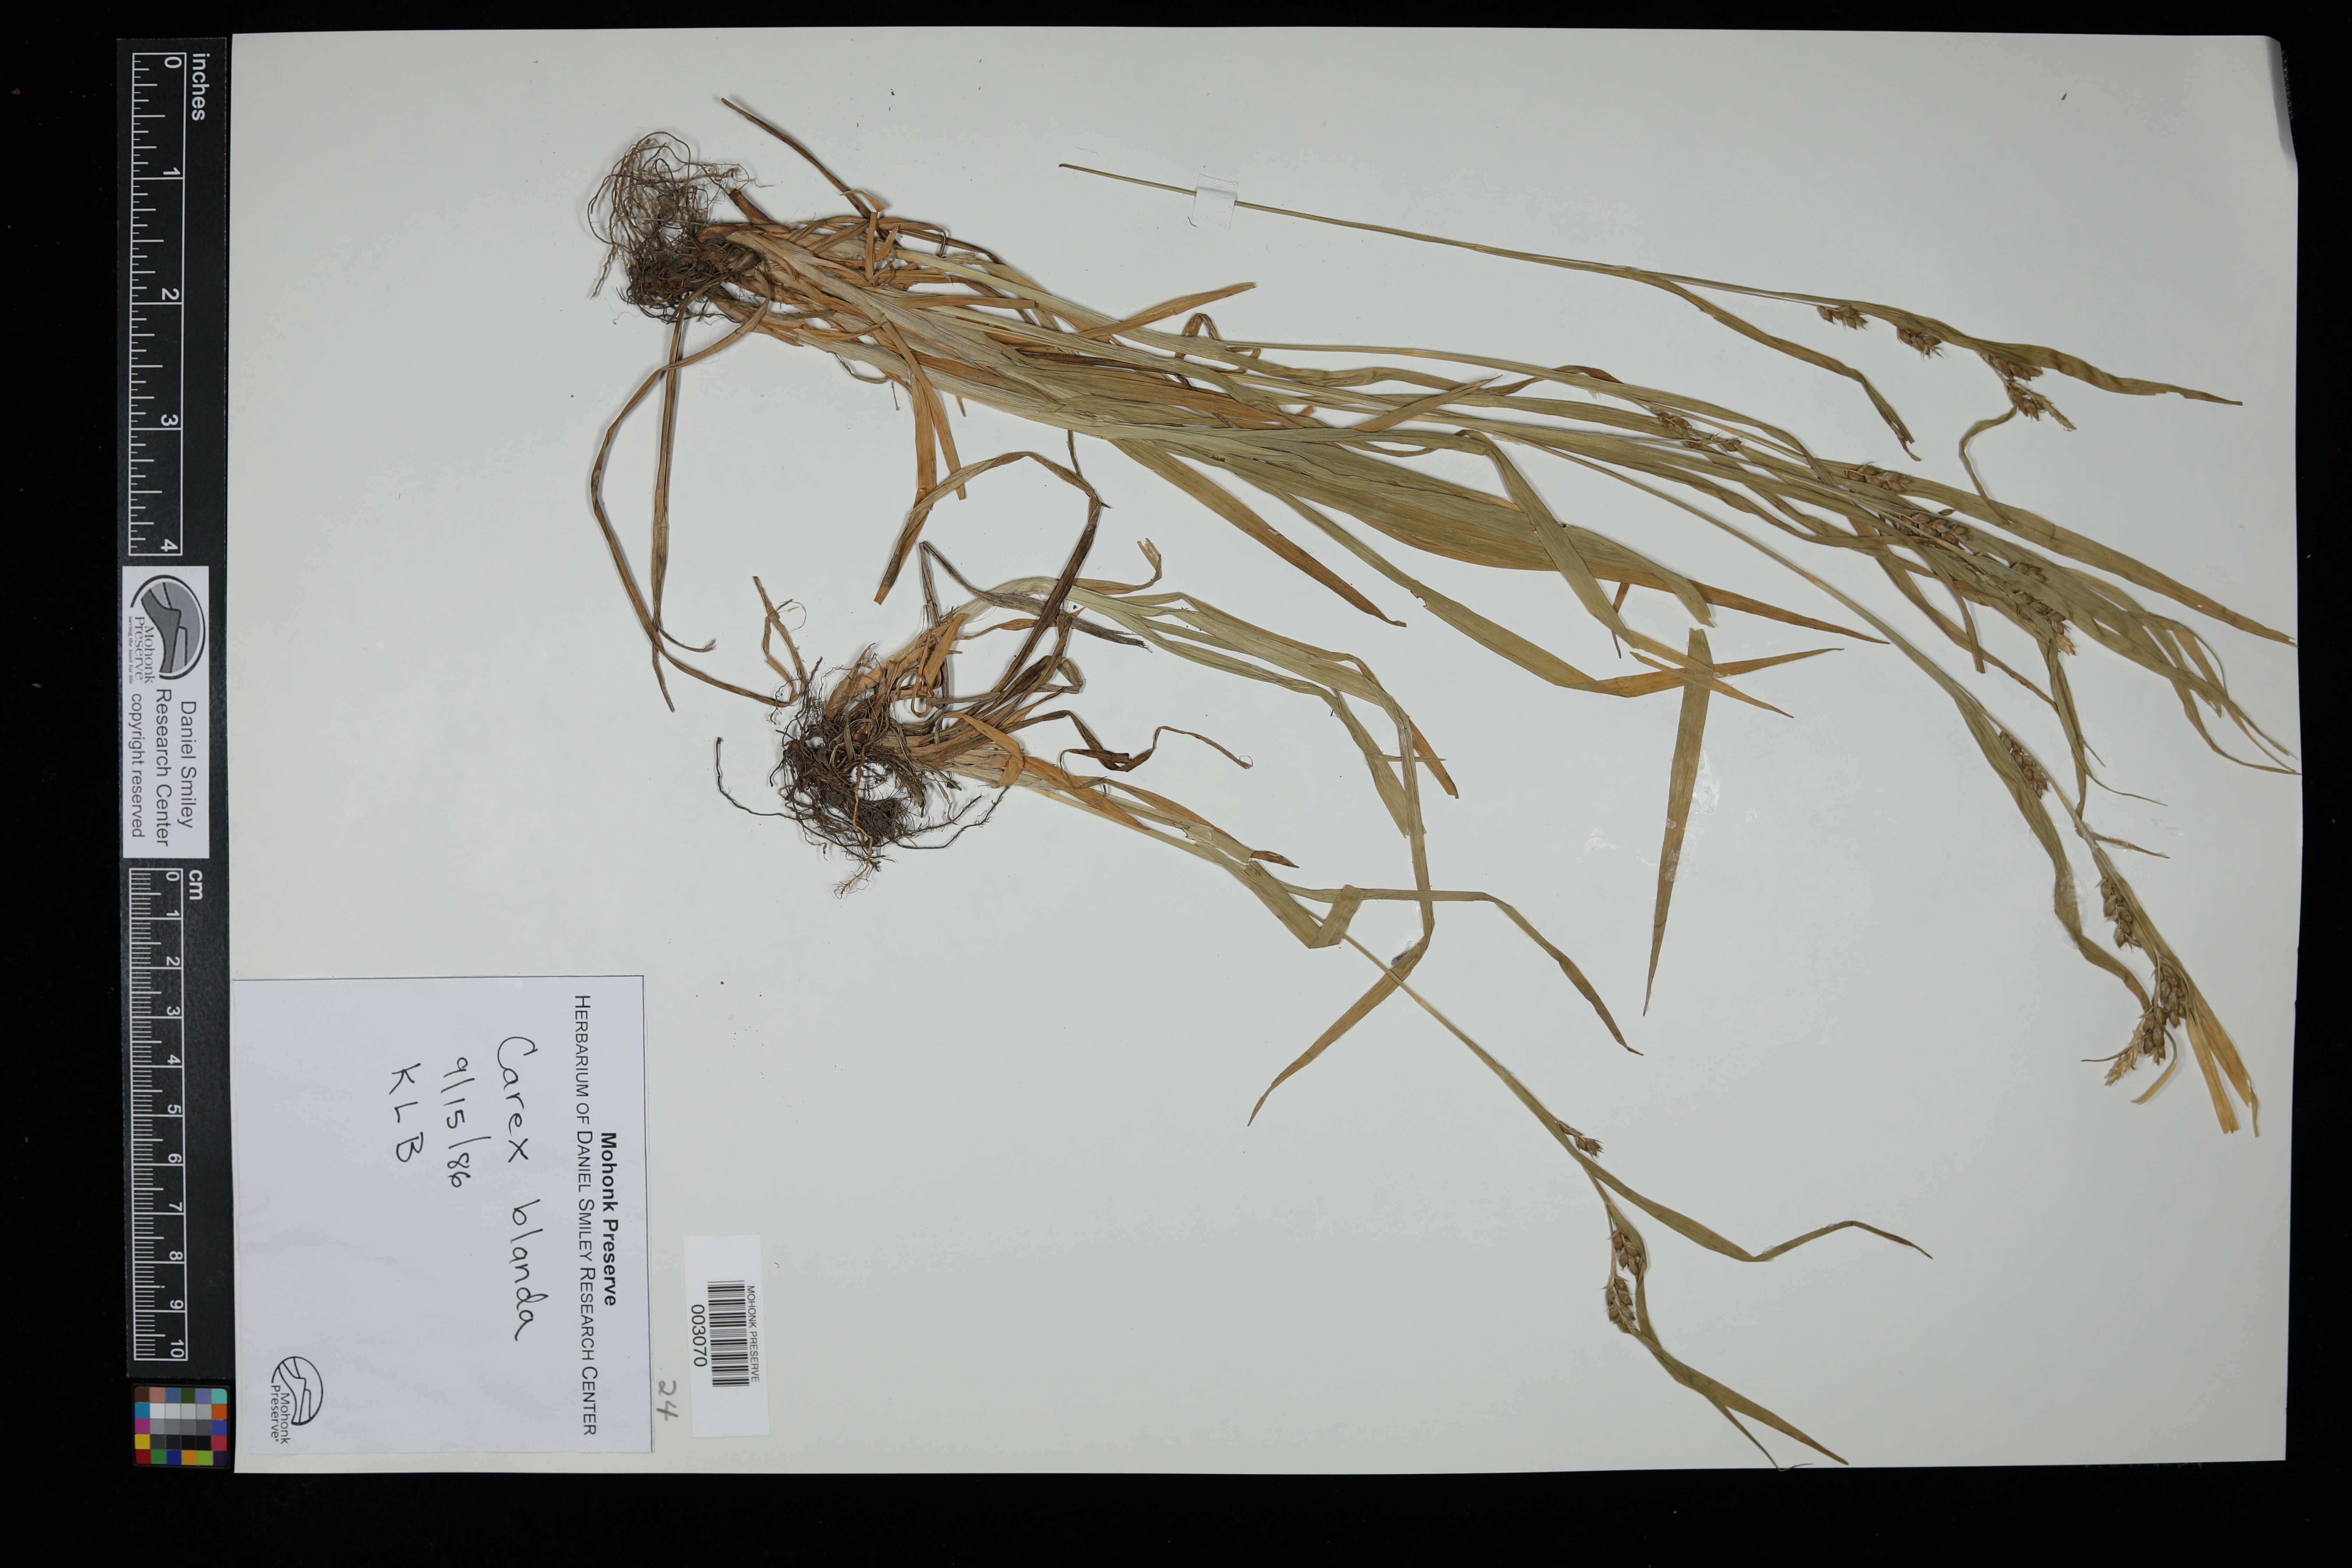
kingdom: Plantae
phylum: Tracheophyta
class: Liliopsida
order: Poales
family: Cyperaceae
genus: Carex
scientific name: Carex blanda
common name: Bland sedge
